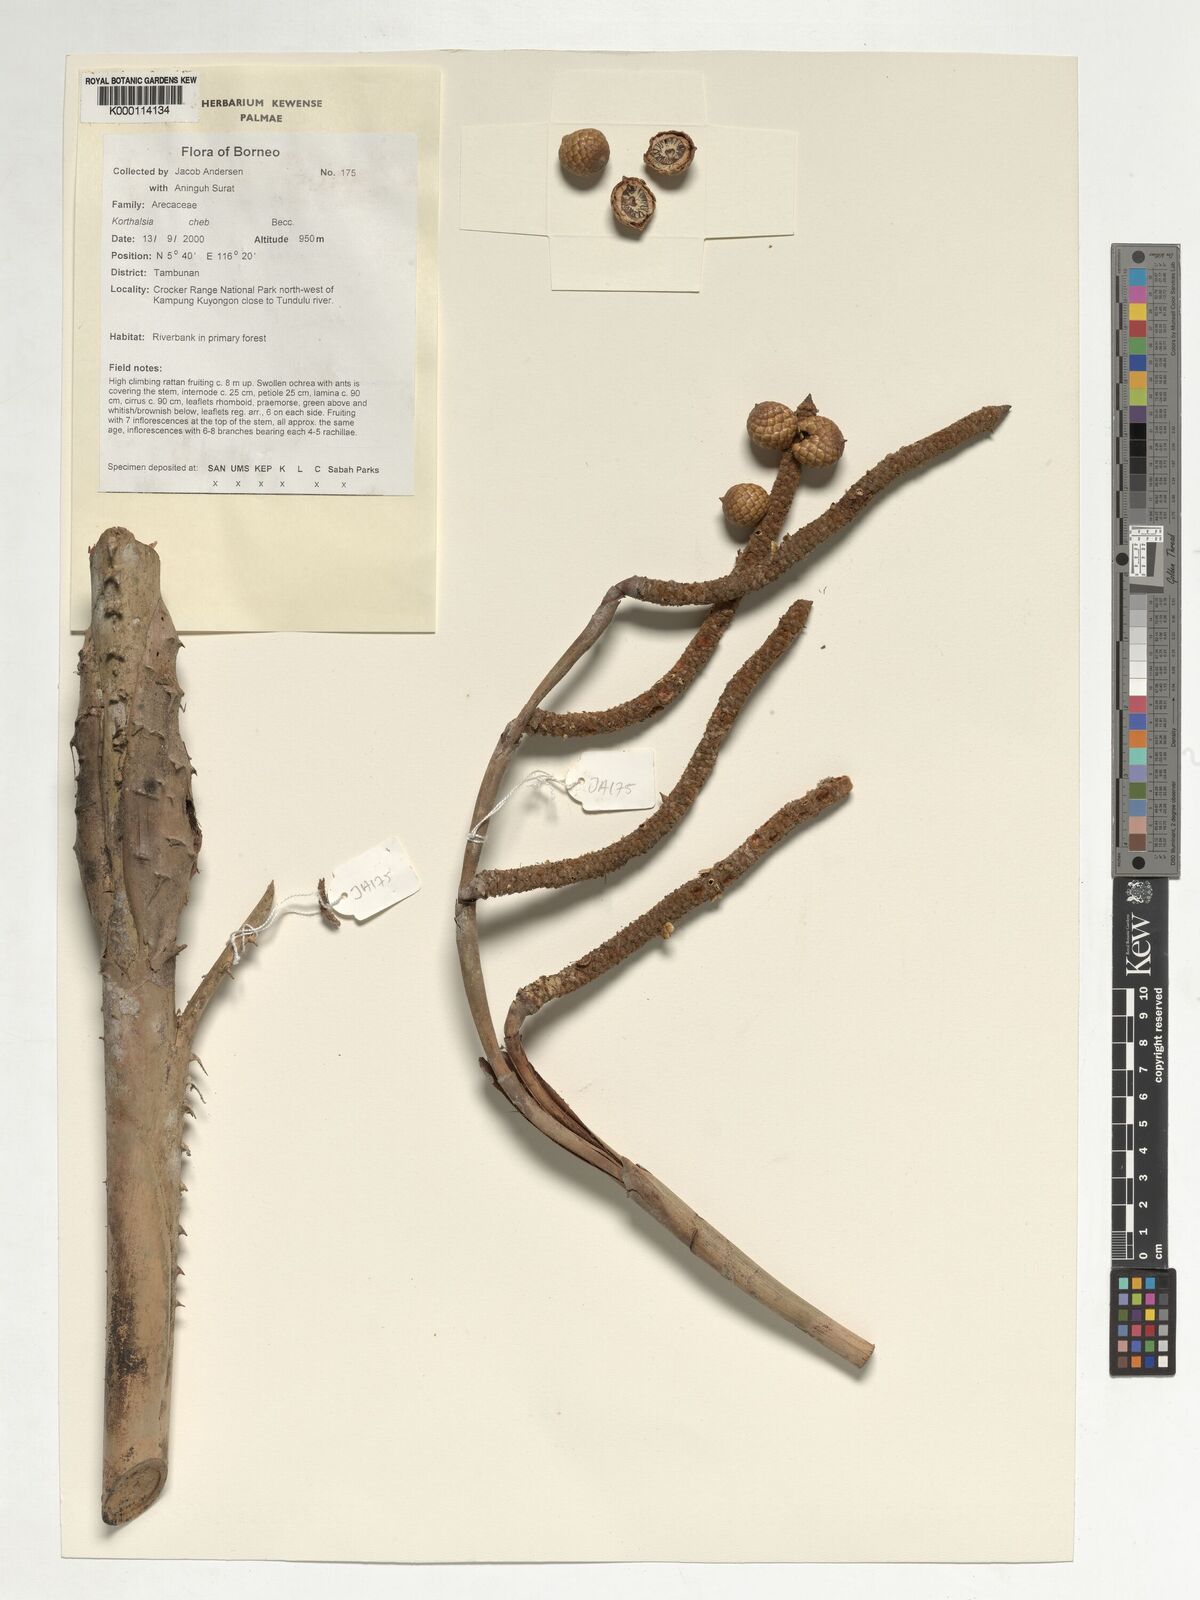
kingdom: Plantae
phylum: Tracheophyta
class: Liliopsida
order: Arecales
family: Arecaceae
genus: Korthalsia
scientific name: Korthalsia cheb
